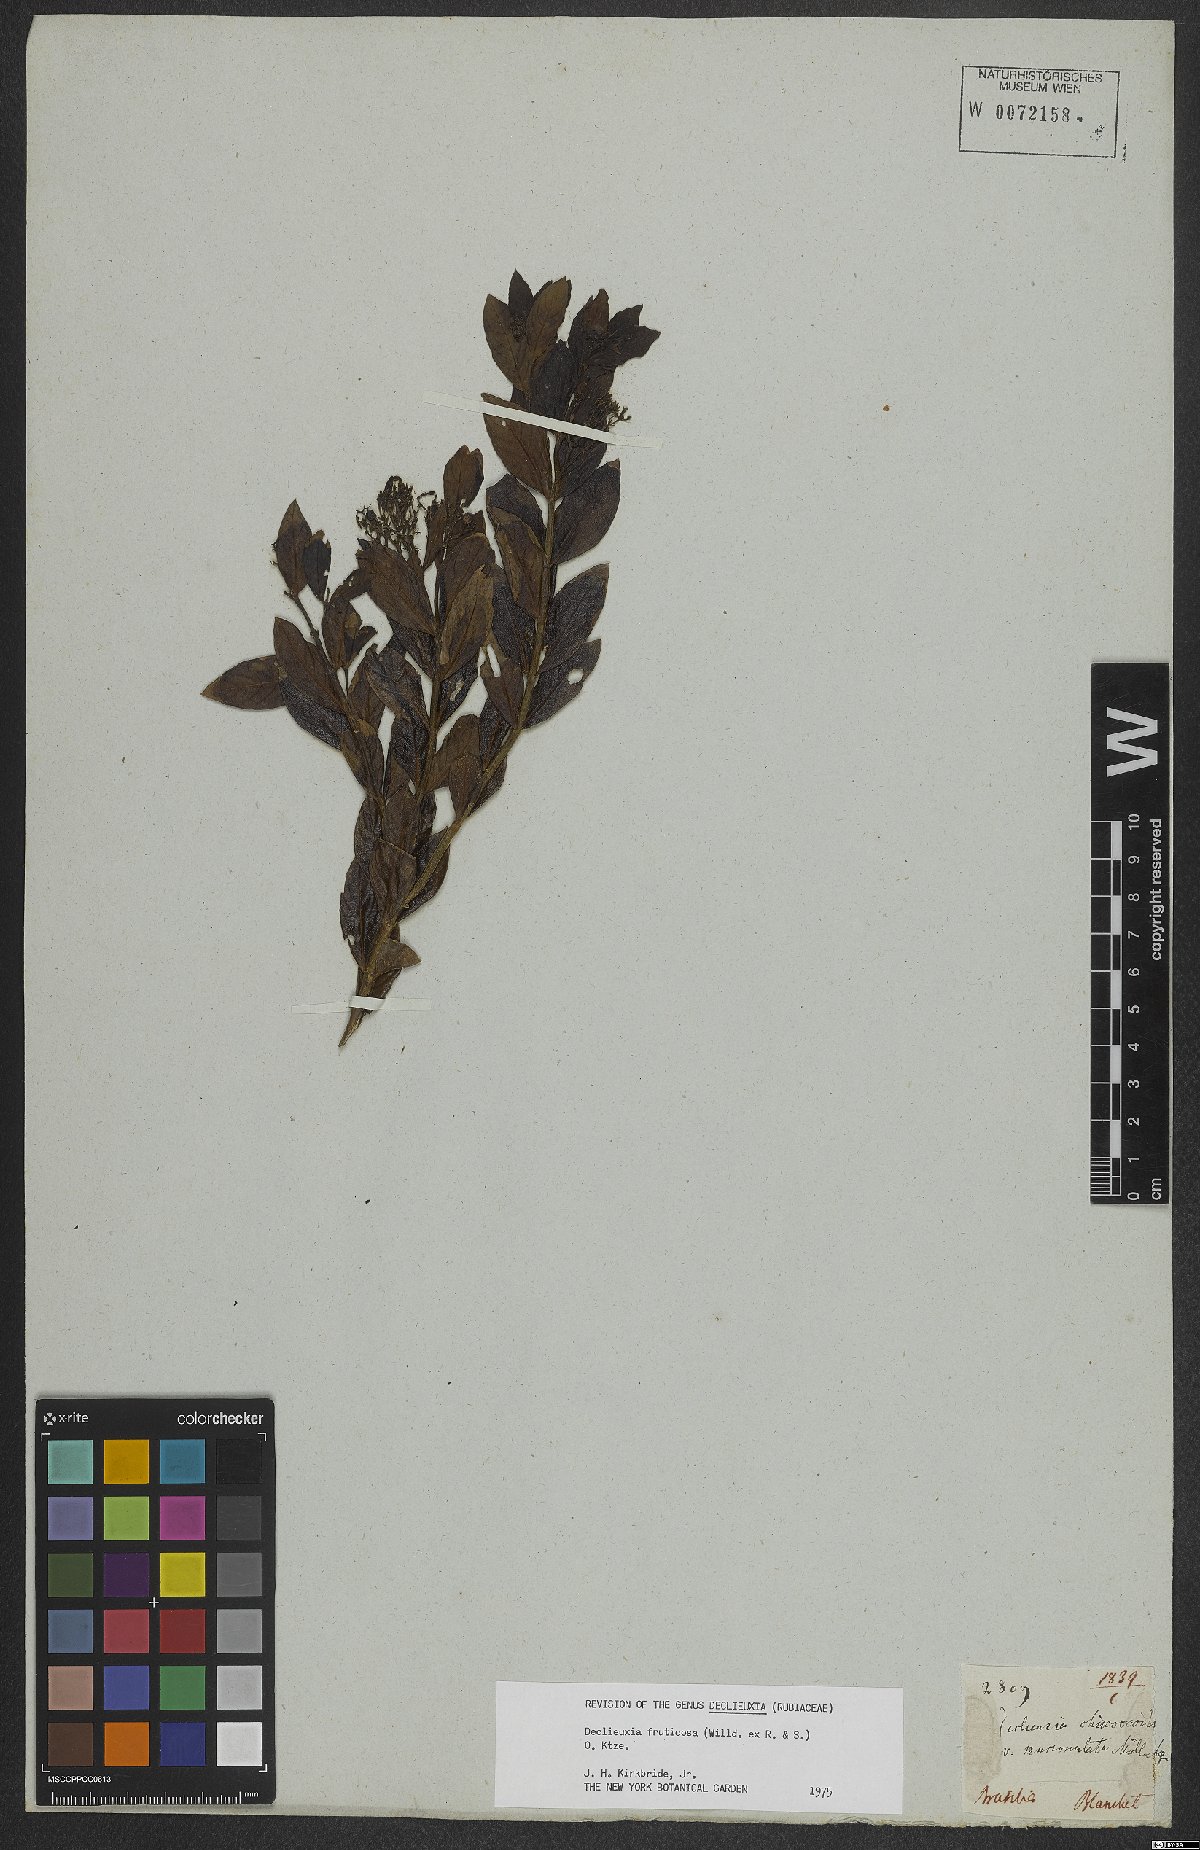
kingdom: Plantae
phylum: Tracheophyta
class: Magnoliopsida
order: Gentianales
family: Rubiaceae
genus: Declieuxia
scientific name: Declieuxia fruticosa
